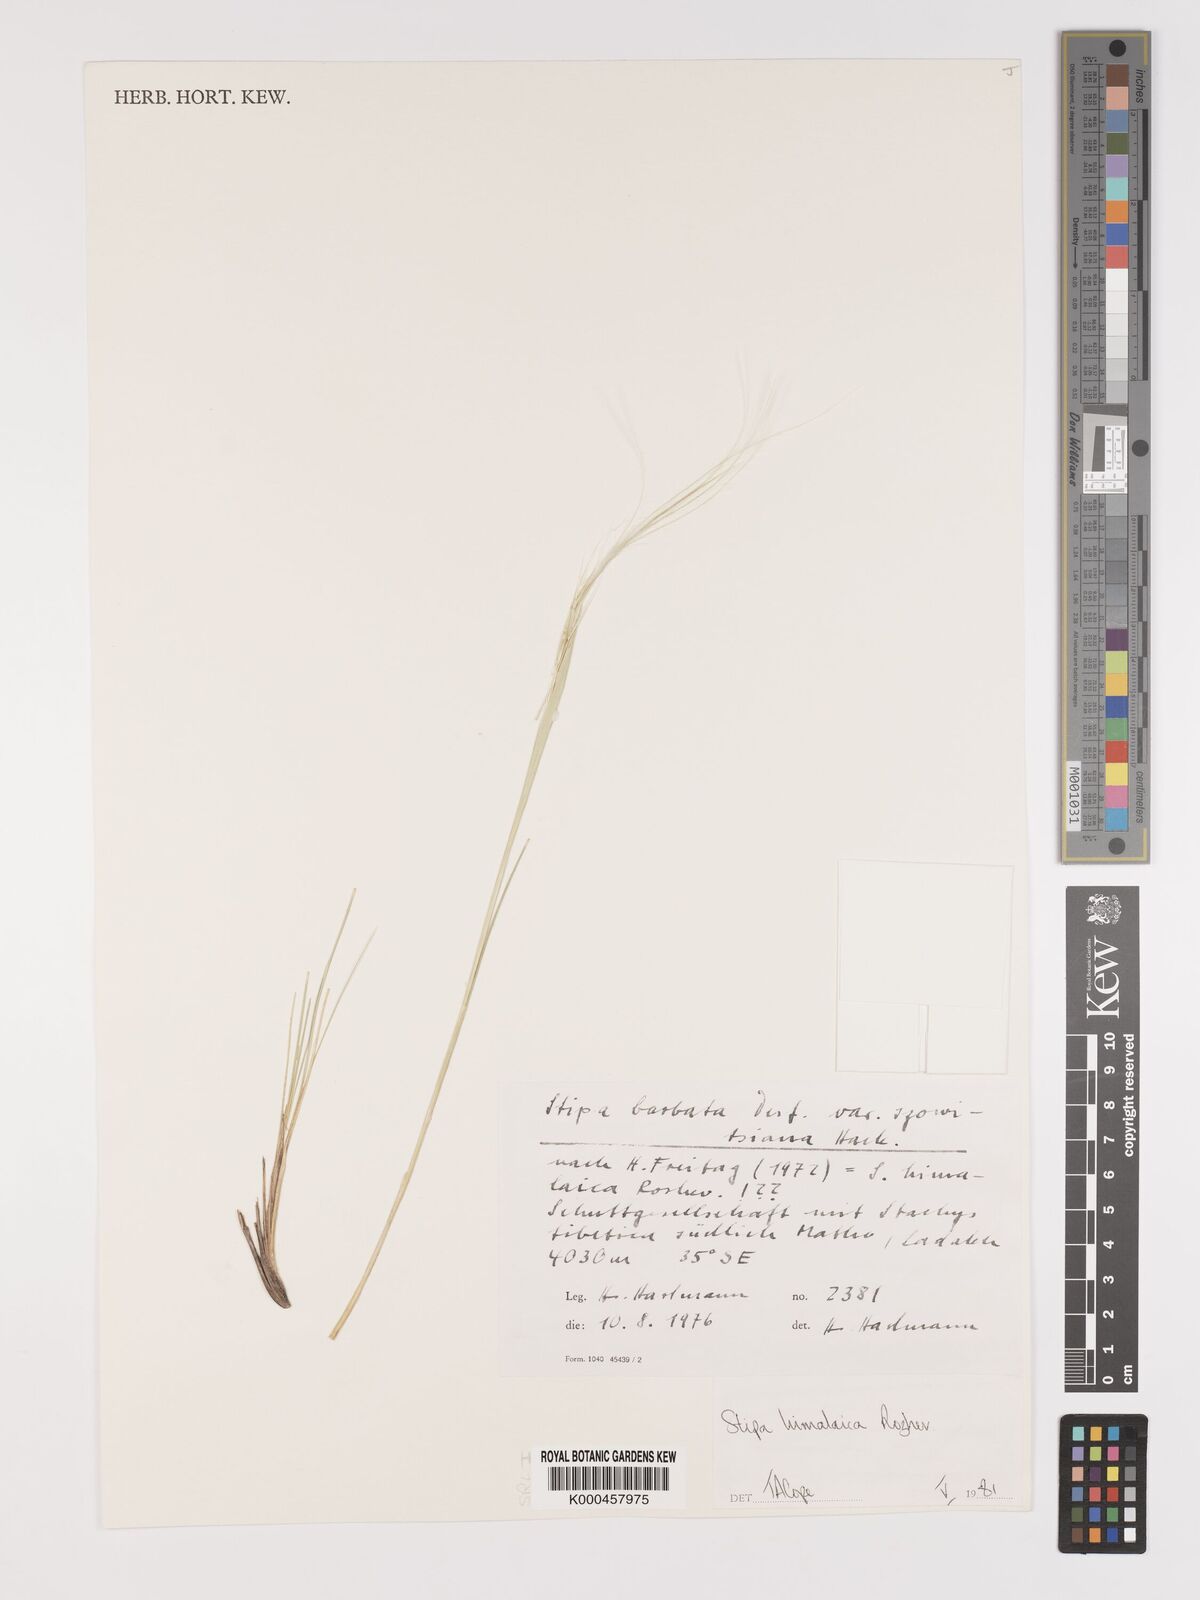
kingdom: Plantae
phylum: Tracheophyta
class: Liliopsida
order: Poales
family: Poaceae
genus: Stipa
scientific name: Stipa himalaica
